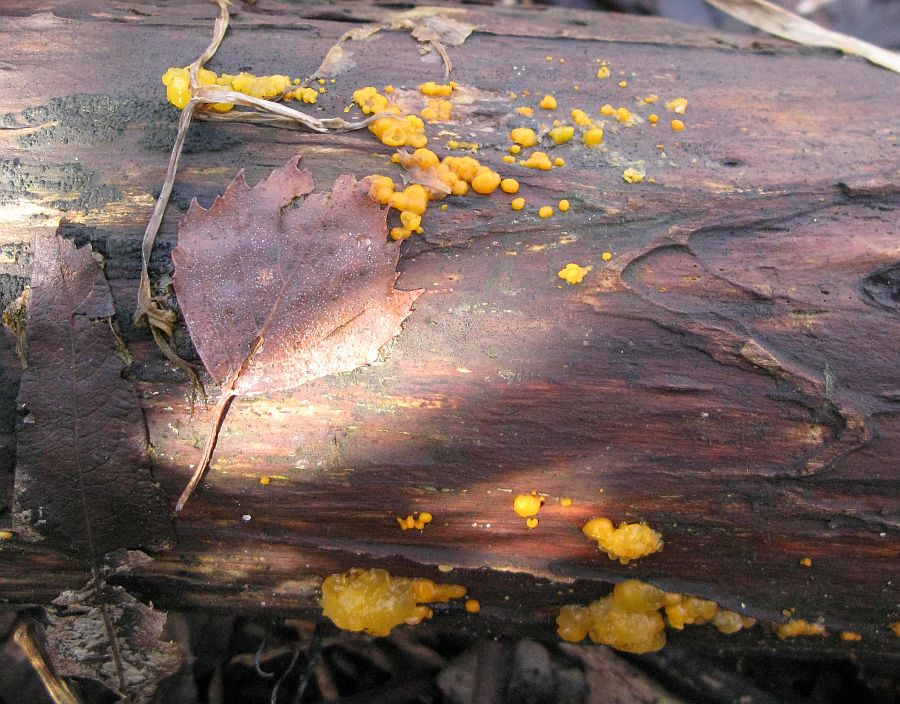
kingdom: Fungi
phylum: Basidiomycota
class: Dacrymycetes
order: Dacrymycetales
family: Dacrymycetaceae
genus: Dacrymyces
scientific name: Dacrymyces stillatus
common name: almindelig tåresvamp
